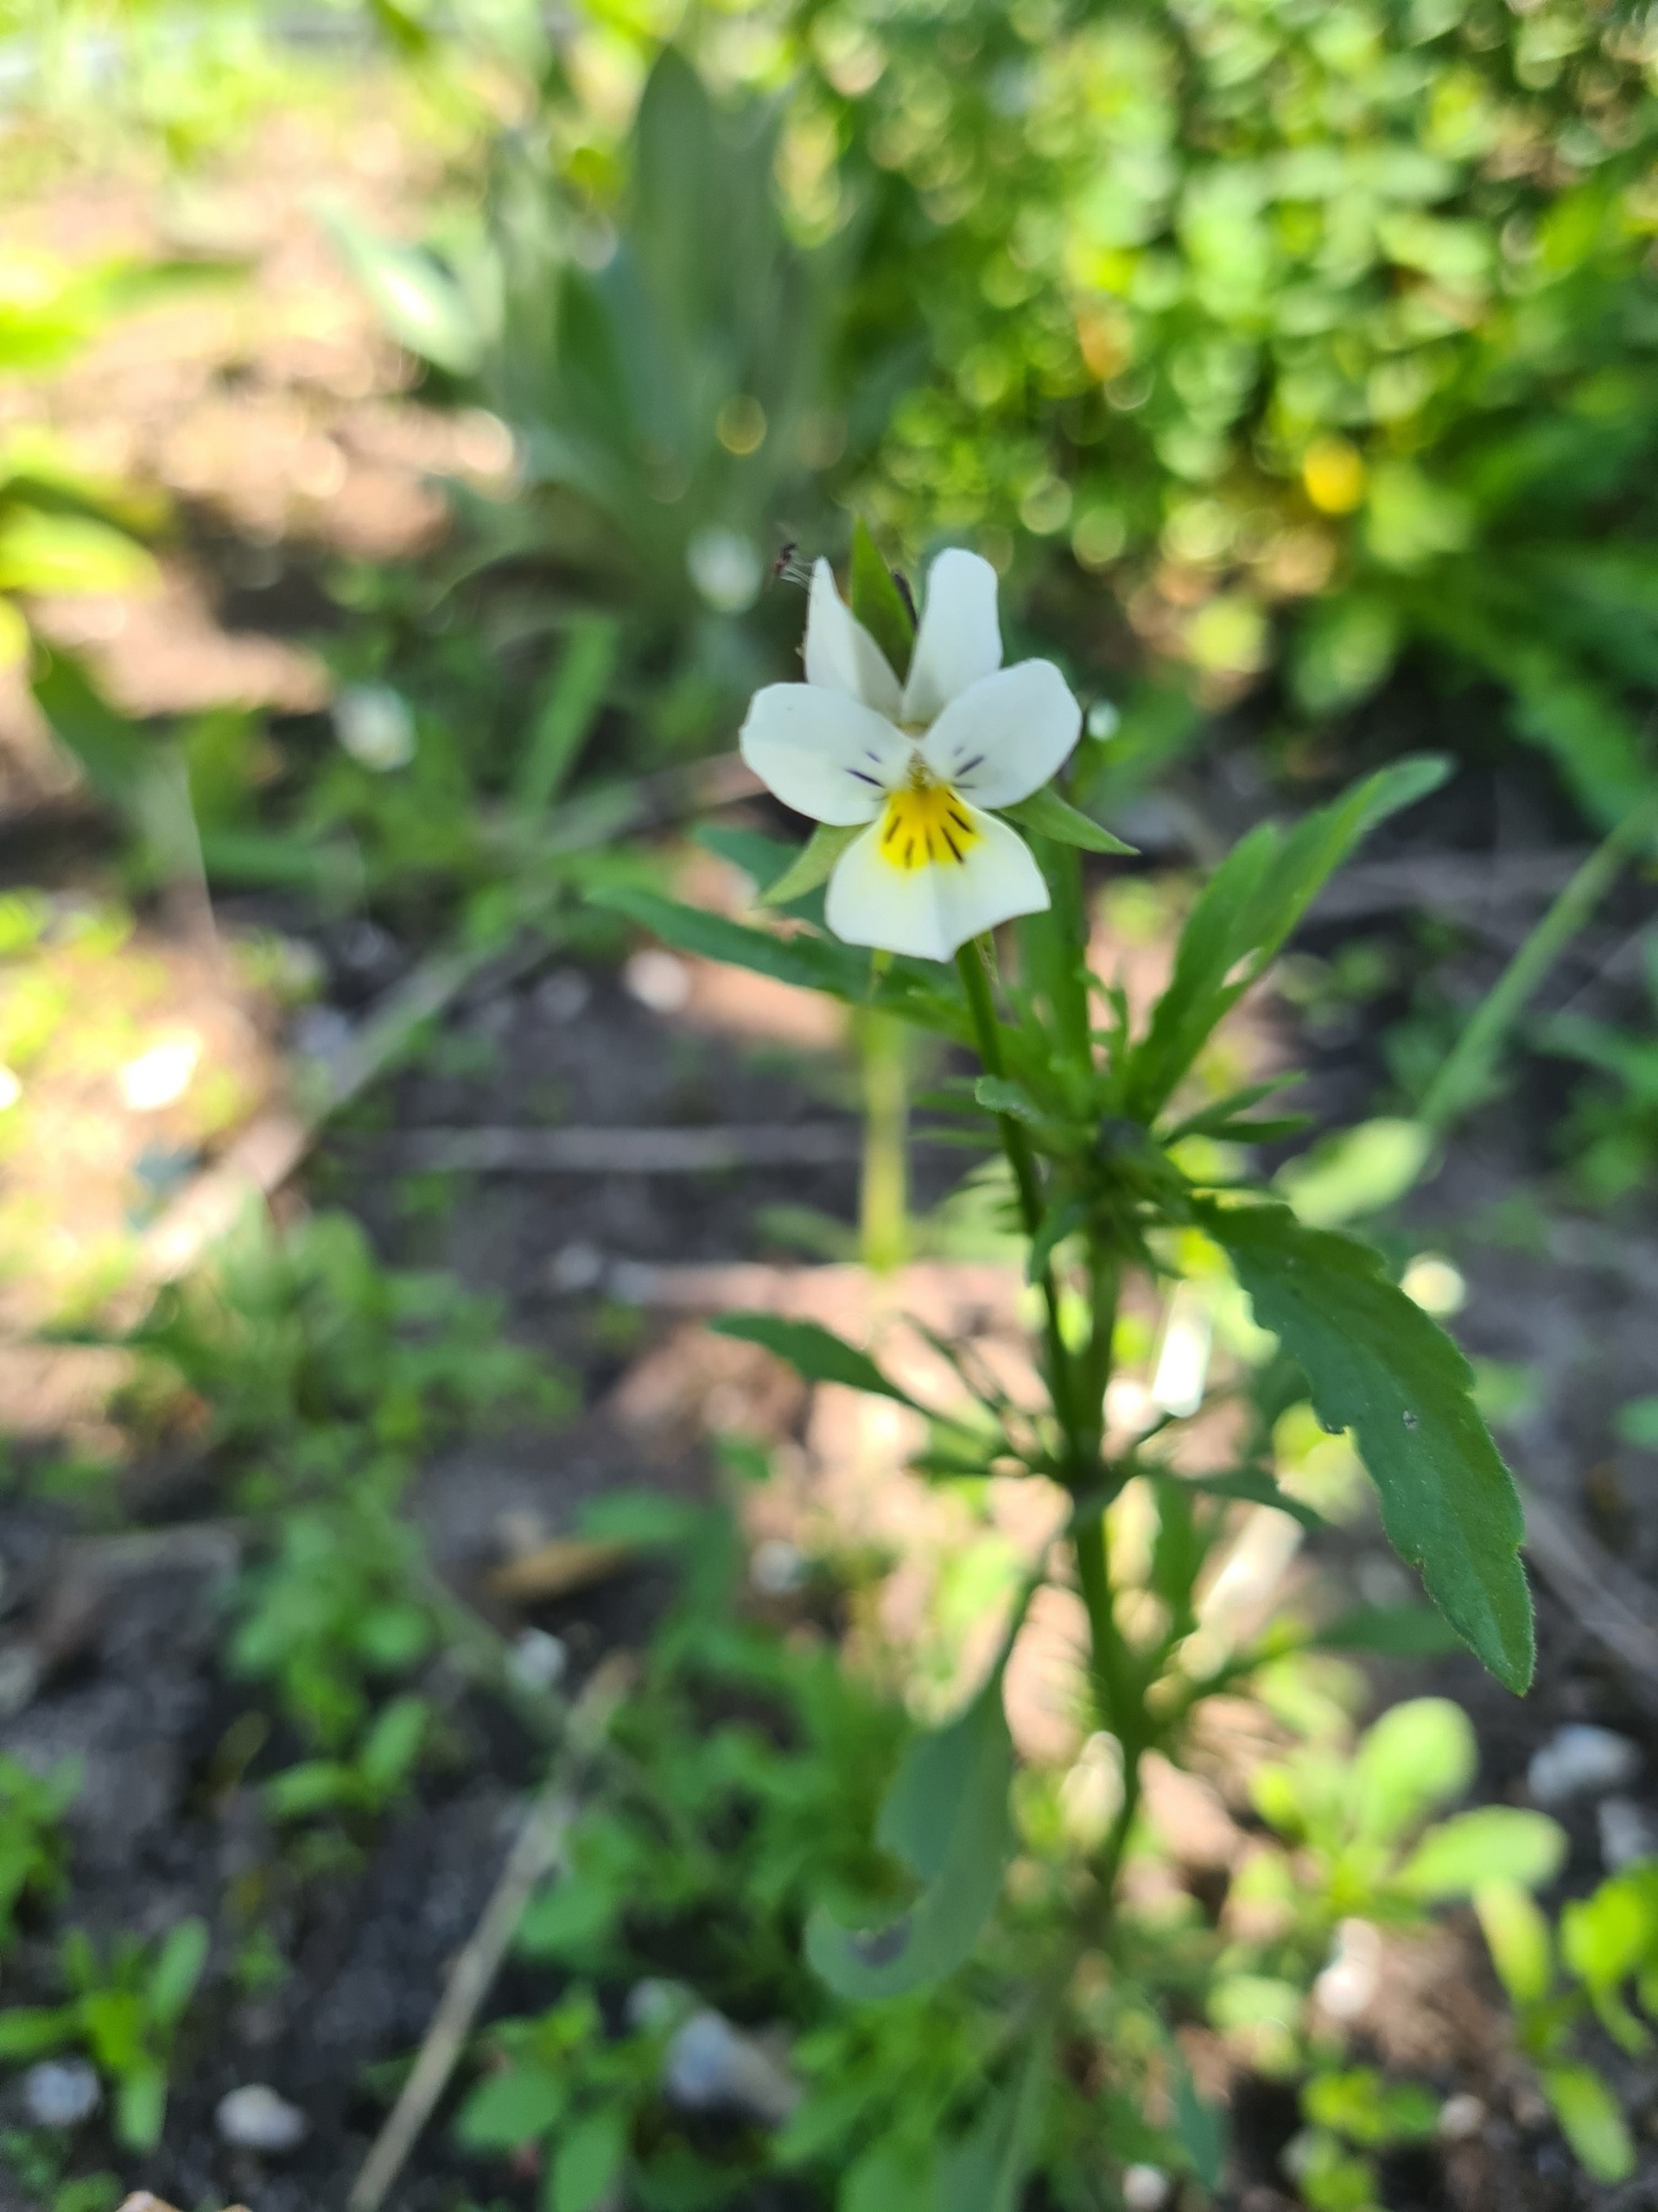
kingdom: Plantae
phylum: Tracheophyta
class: Magnoliopsida
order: Malpighiales
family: Violaceae
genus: Viola
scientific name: Viola arvensis
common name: Ager-stedmoderblomst
